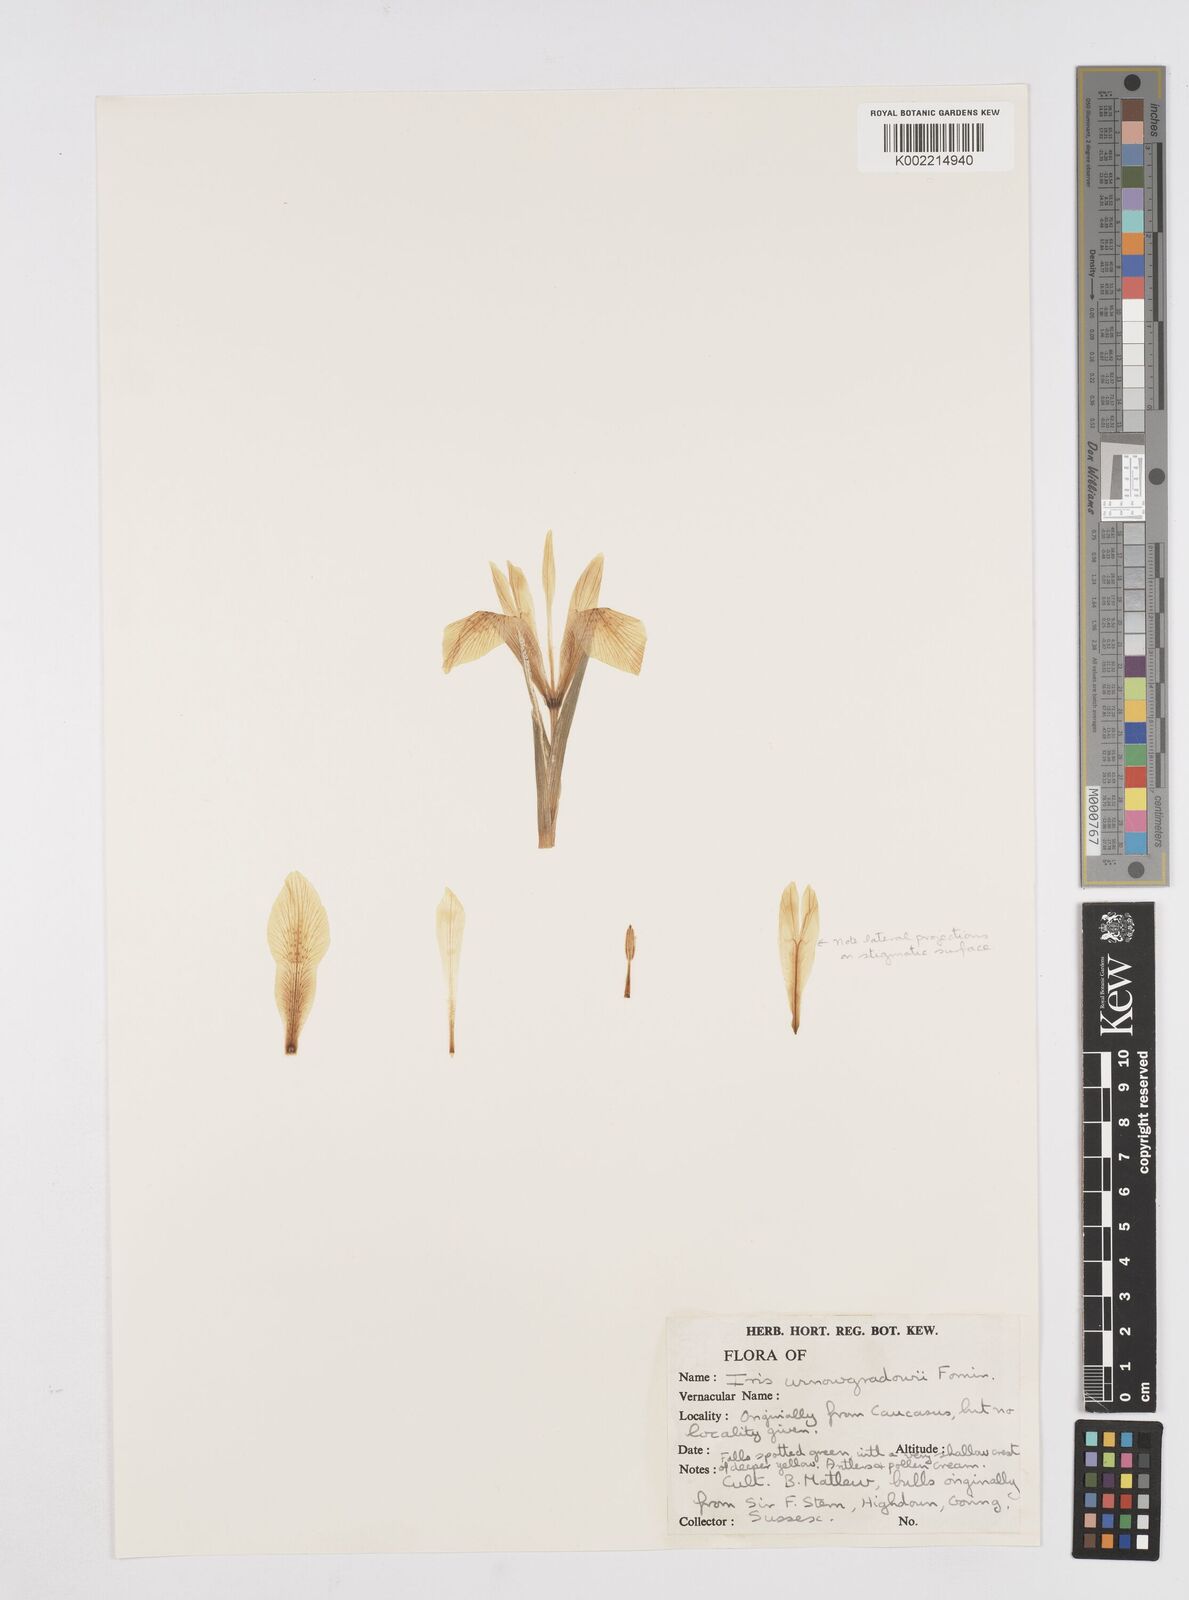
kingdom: Plantae
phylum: Tracheophyta
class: Liliopsida
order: Asparagales
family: Iridaceae
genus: Iris
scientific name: Iris winogradowii
